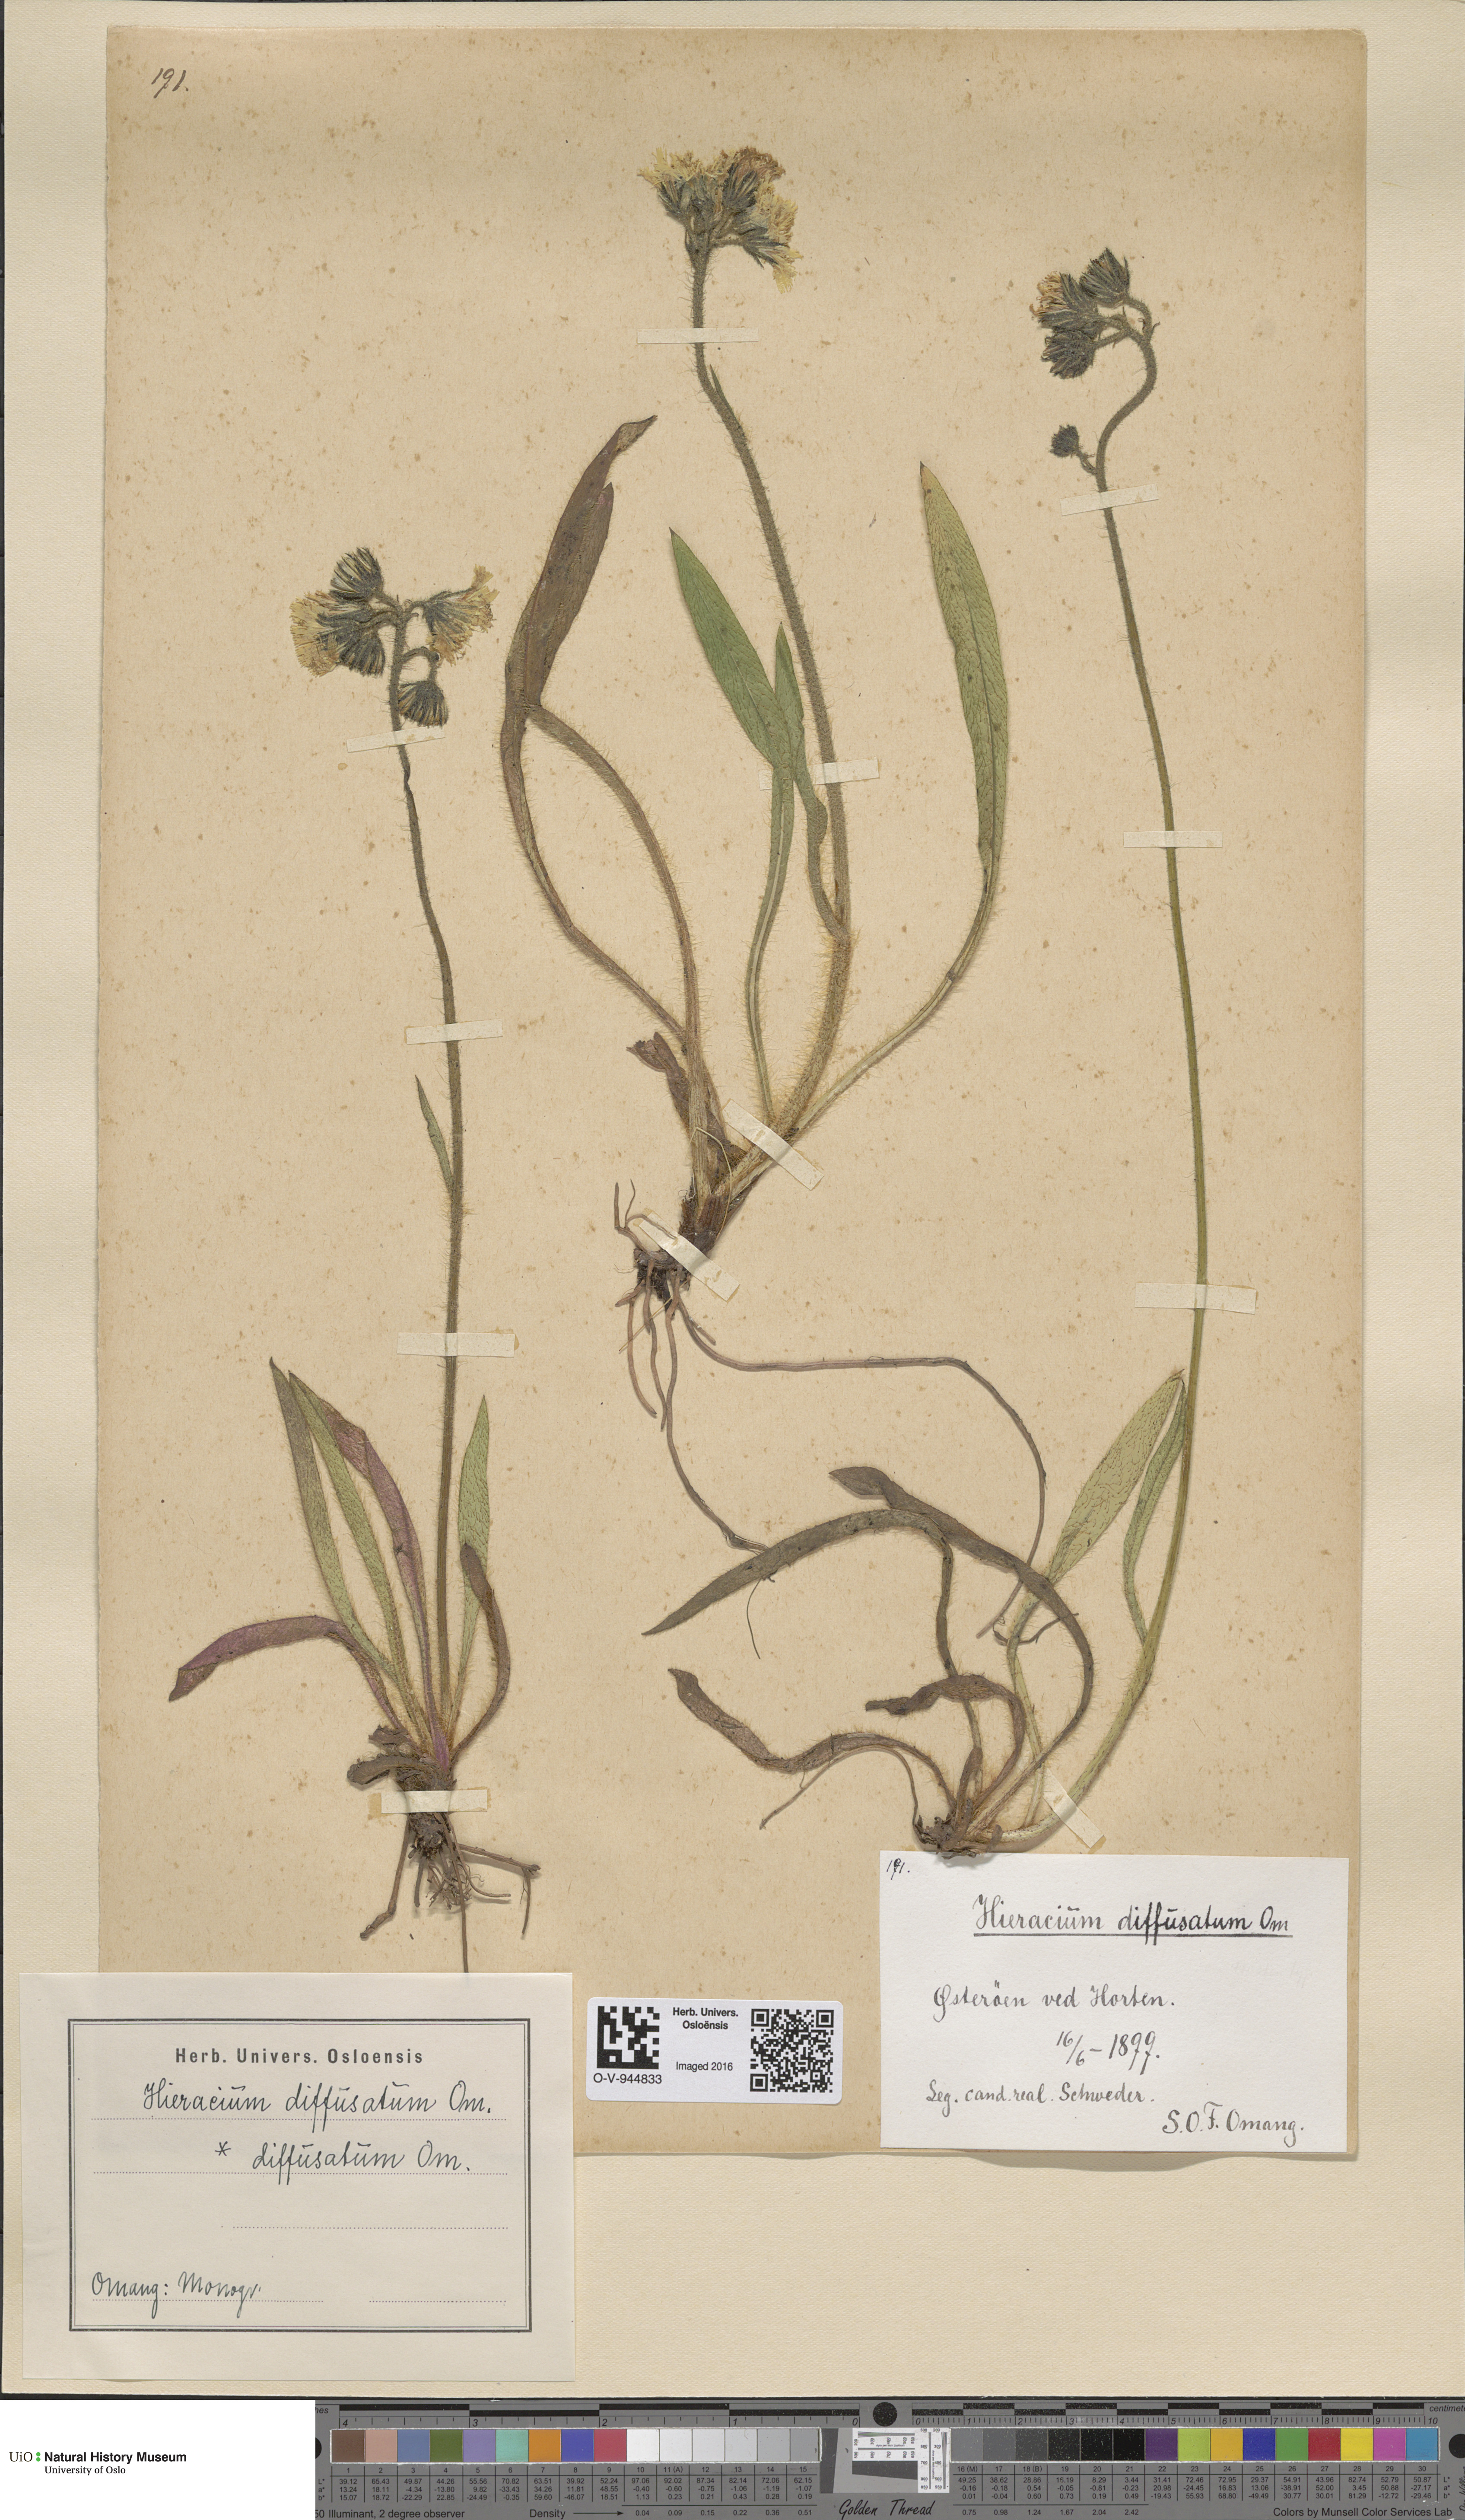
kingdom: Plantae
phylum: Tracheophyta
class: Magnoliopsida
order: Asterales
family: Asteraceae
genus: Pilosella
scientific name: Pilosella dubia
